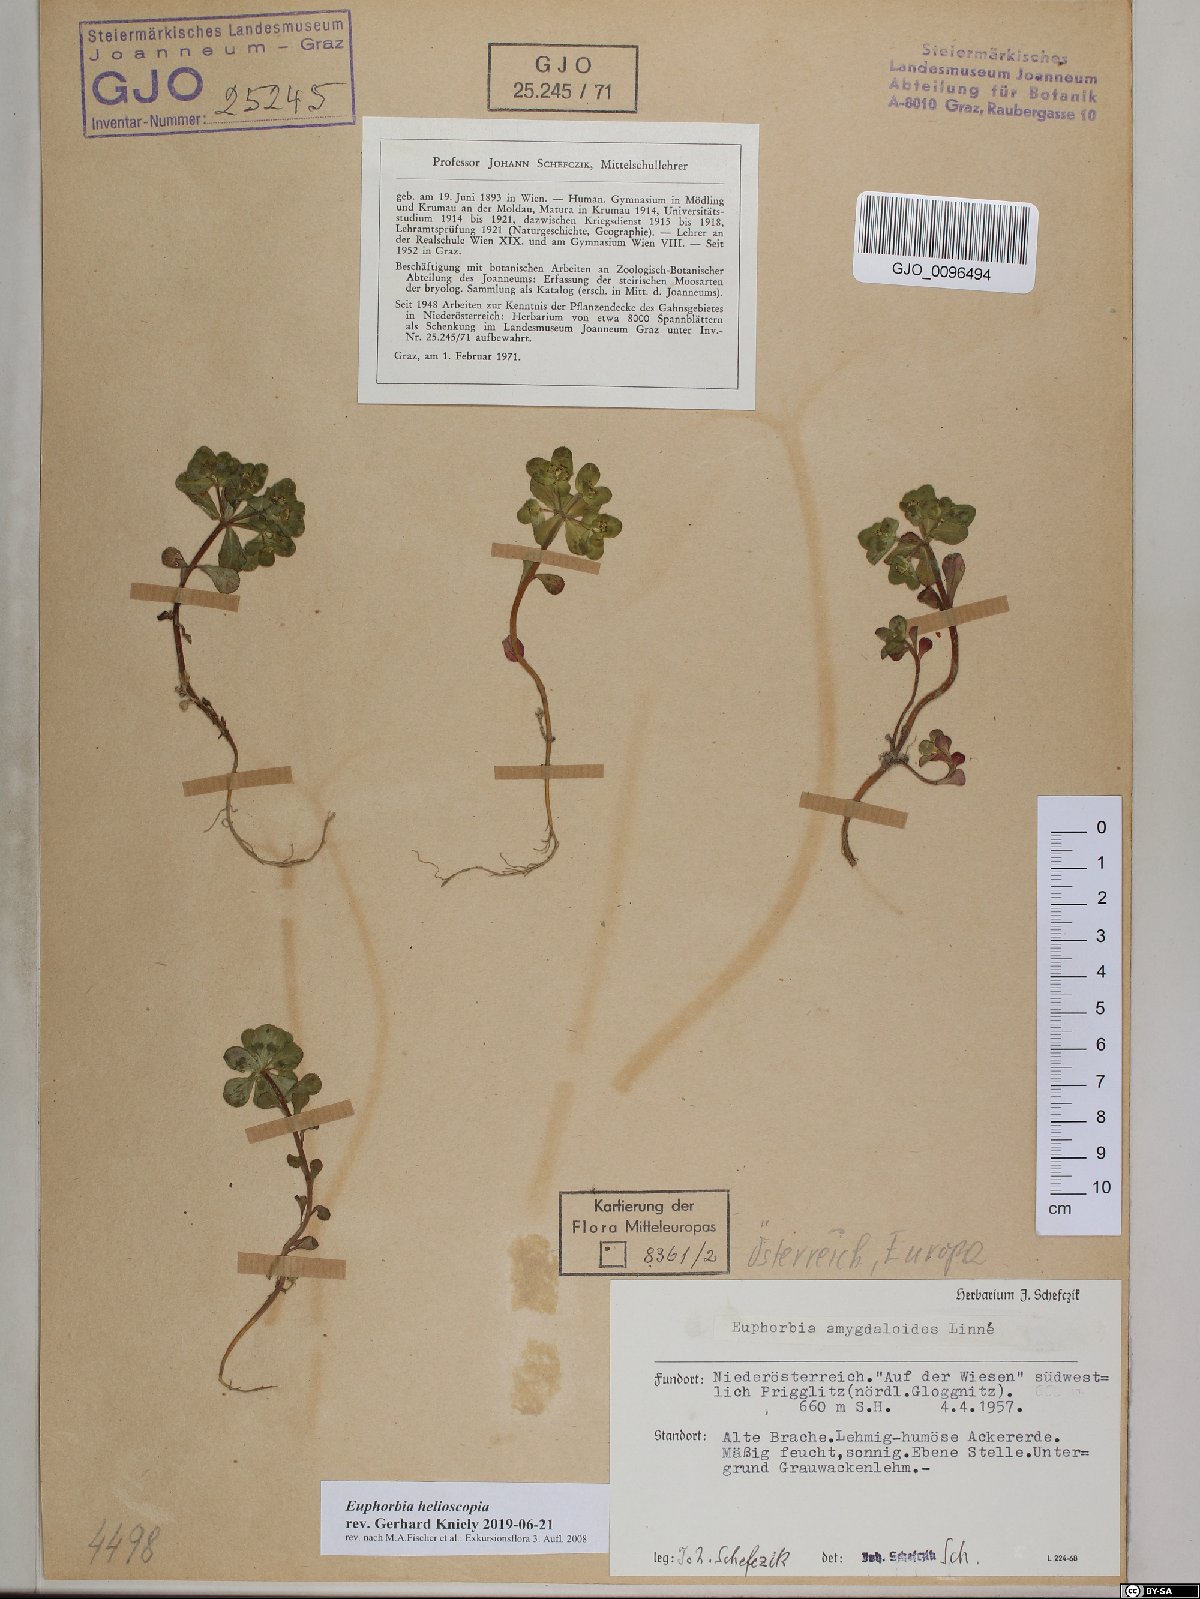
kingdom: Plantae
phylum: Tracheophyta
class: Magnoliopsida
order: Malpighiales
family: Euphorbiaceae
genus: Euphorbia
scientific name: Euphorbia helioscopia
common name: Sun spurge
